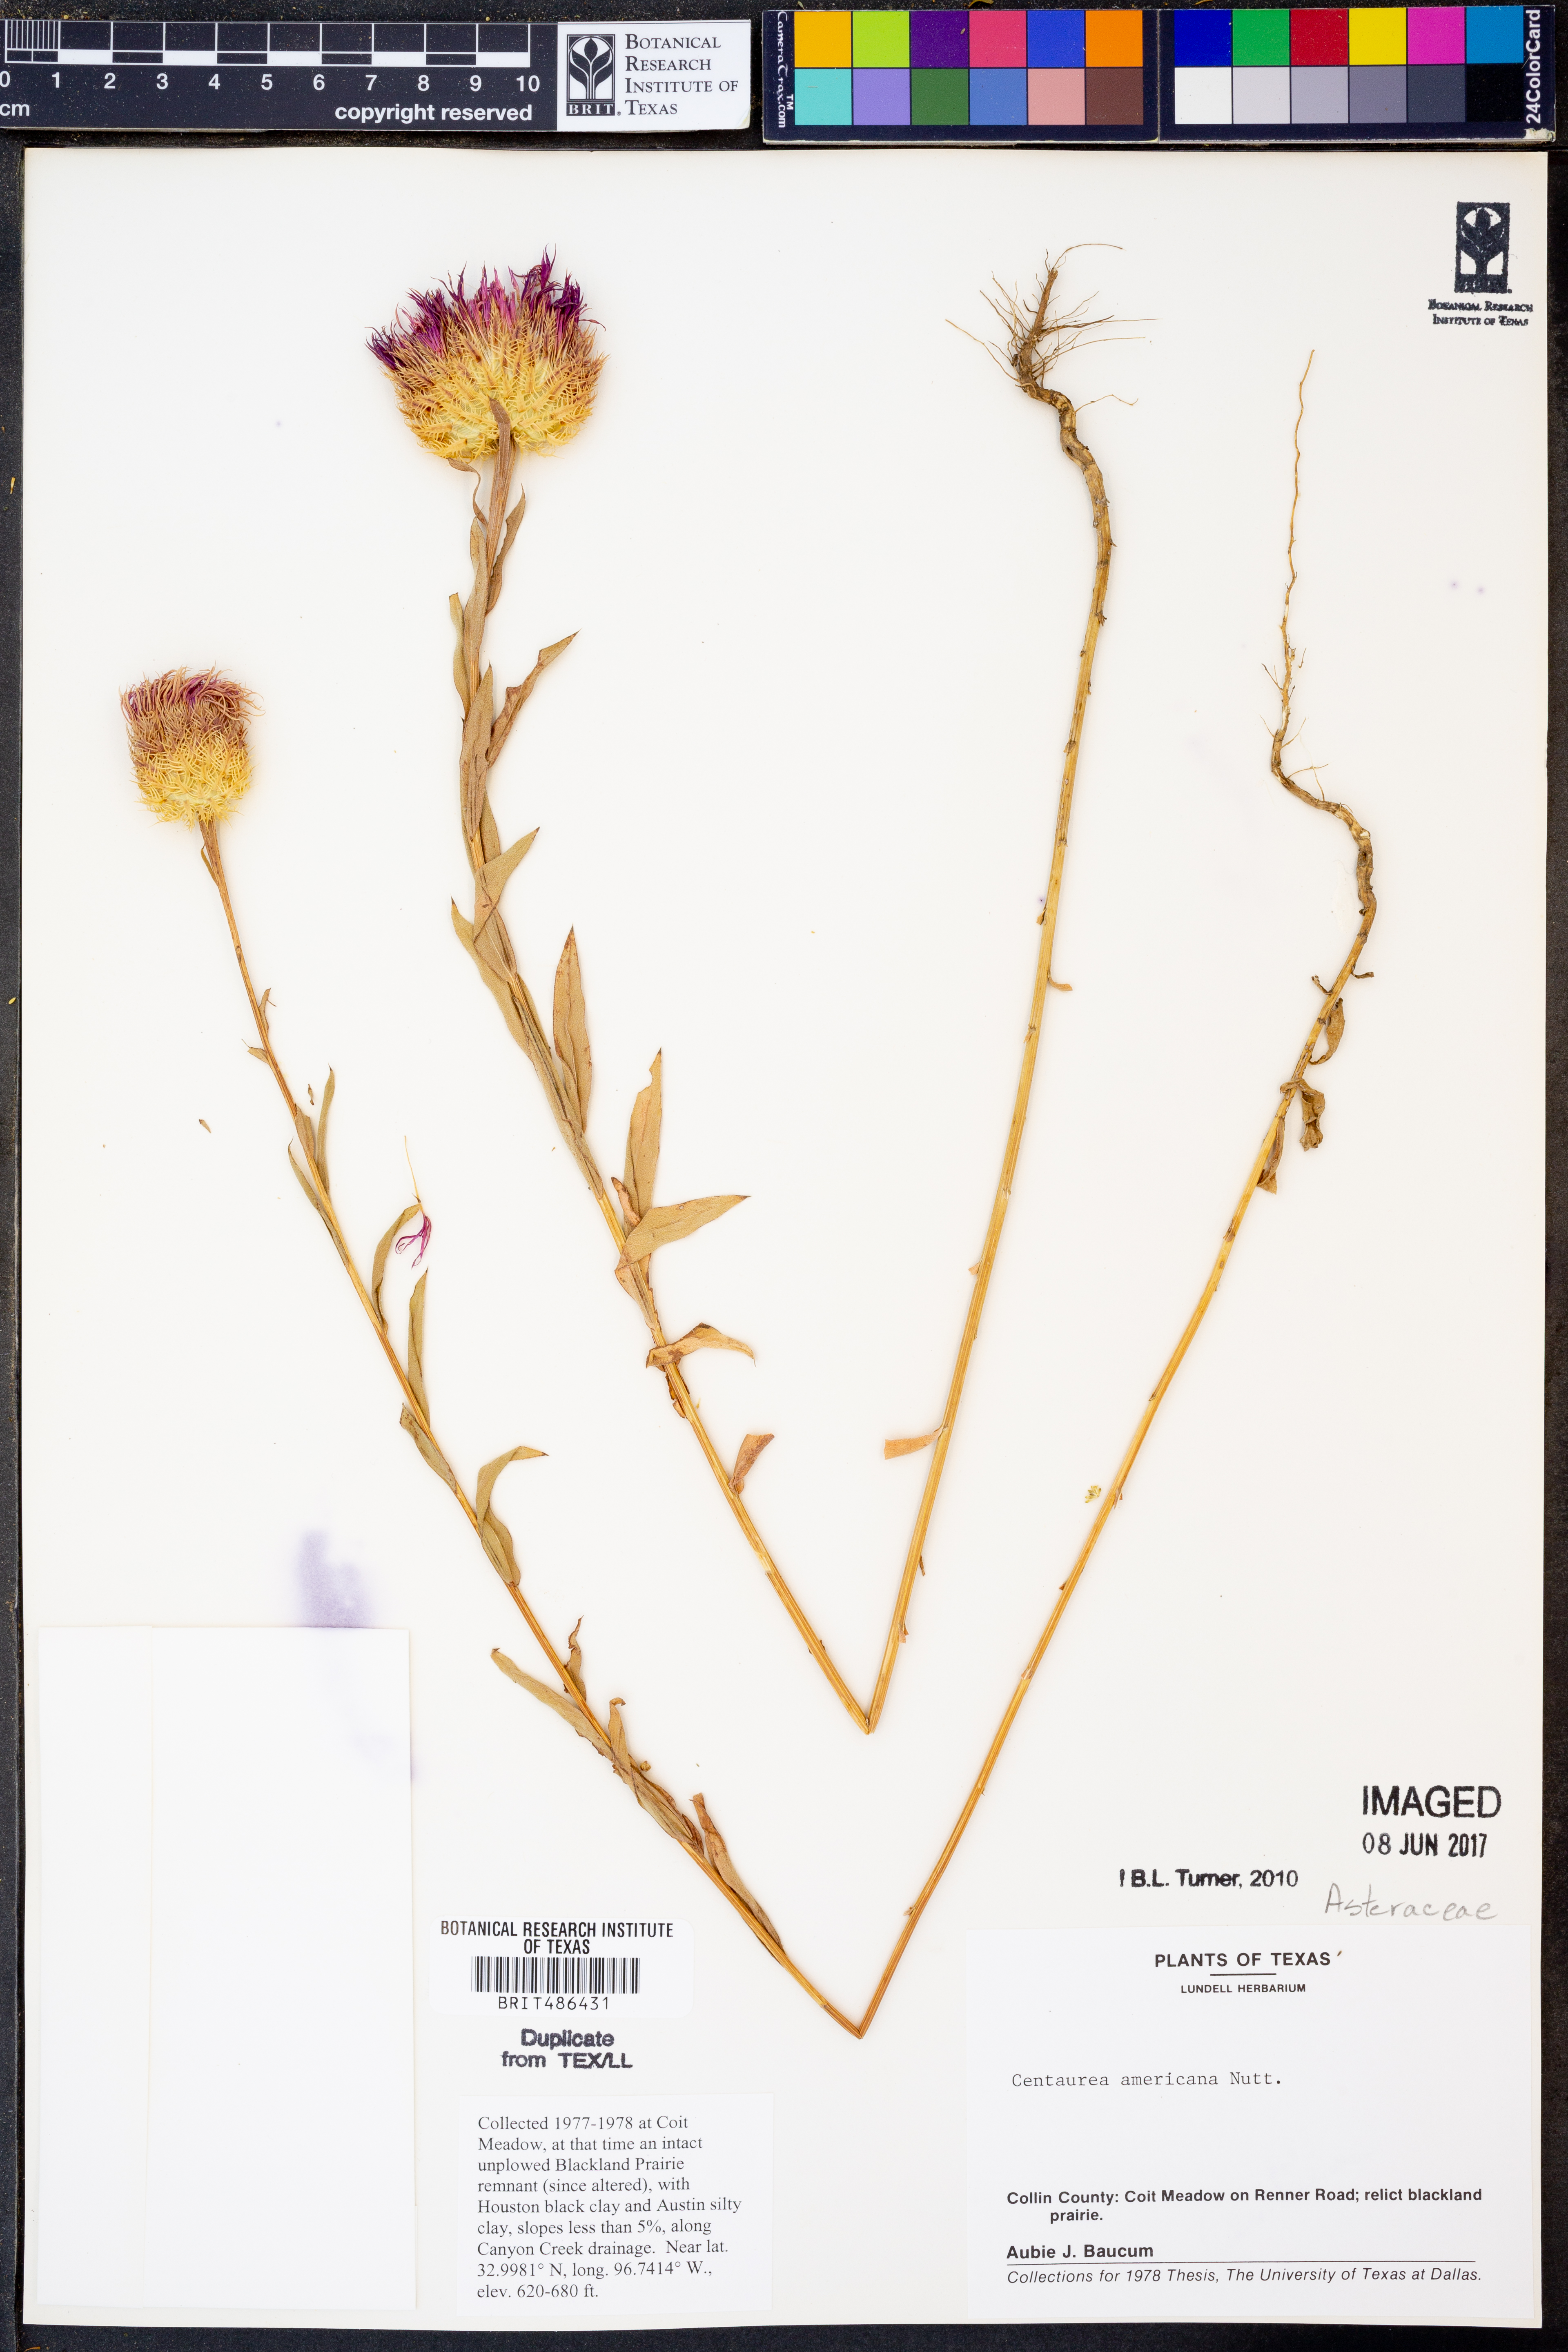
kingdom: Plantae
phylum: Tracheophyta
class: Magnoliopsida
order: Asterales
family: Asteraceae
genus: Plectocephalus
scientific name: Plectocephalus americanus
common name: American basket-flower
